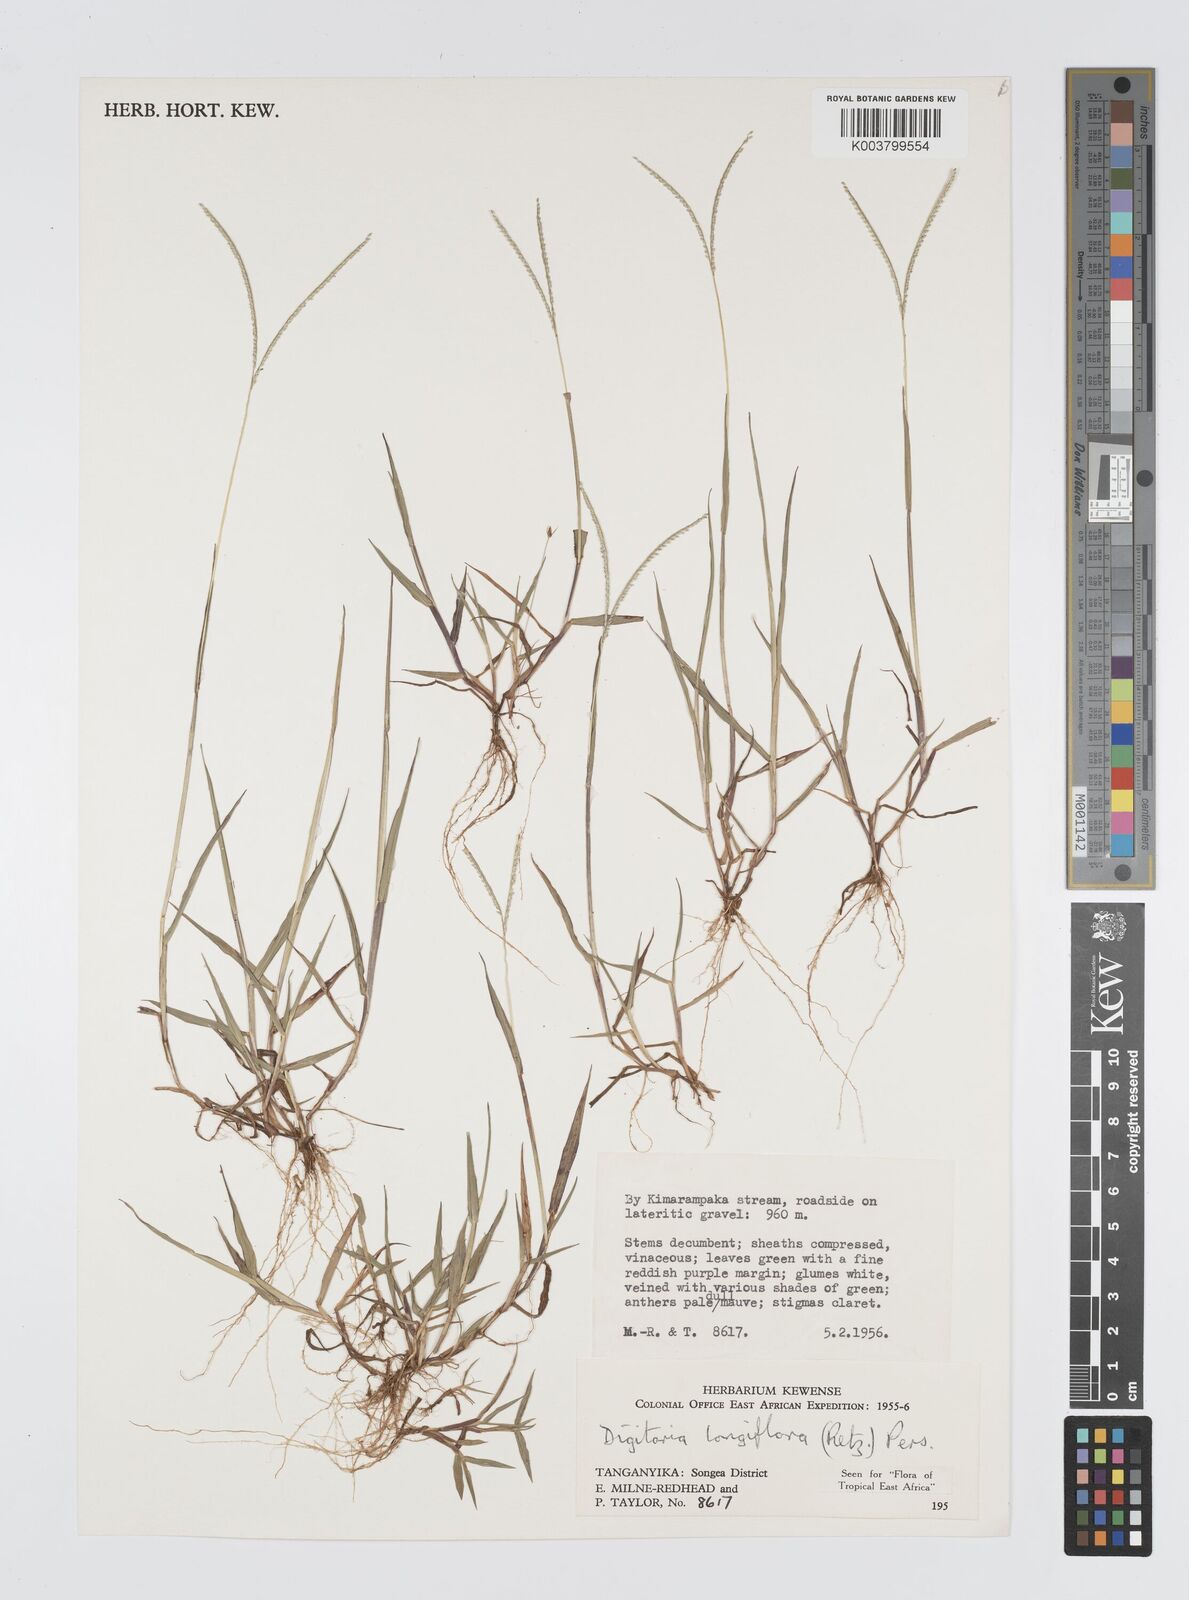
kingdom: Plantae
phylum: Tracheophyta
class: Liliopsida
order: Poales
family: Poaceae
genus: Digitaria
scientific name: Digitaria longiflora
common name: Wire crabgrass
